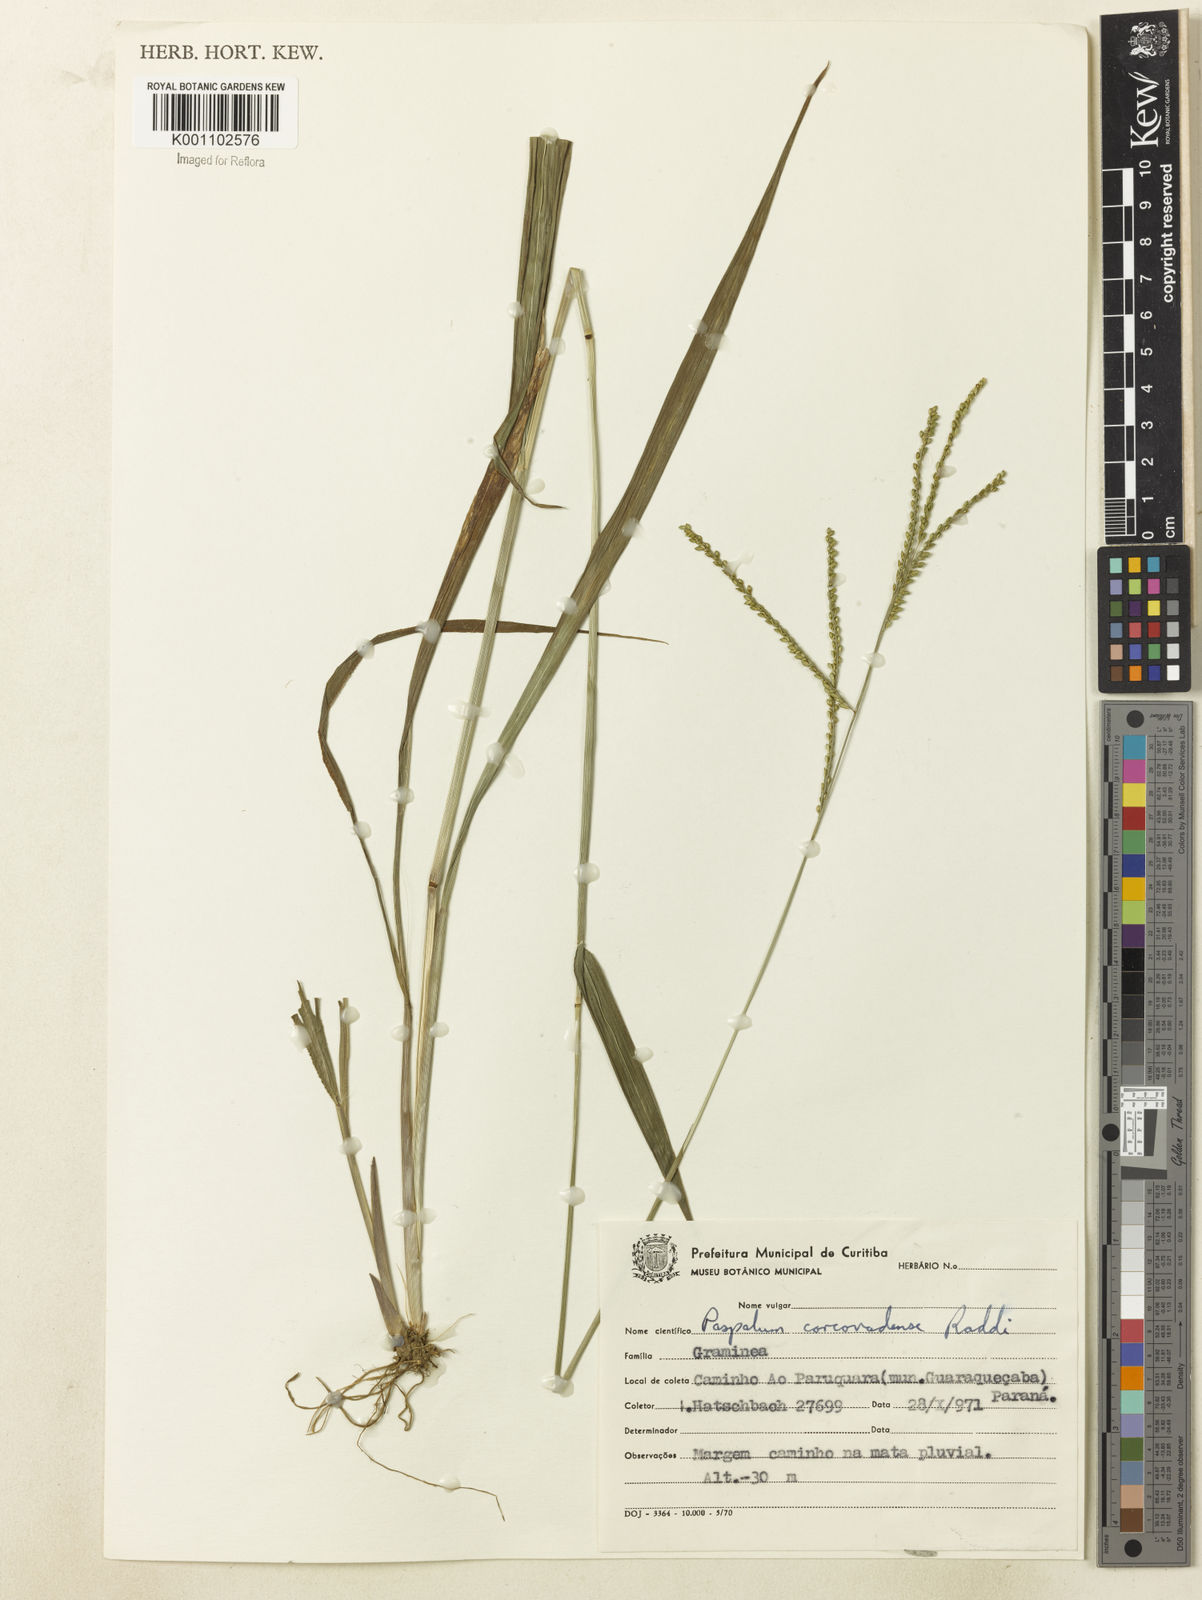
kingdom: Plantae
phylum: Tracheophyta
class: Liliopsida
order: Poales
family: Poaceae
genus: Paspalum
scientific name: Paspalum corcovadense
